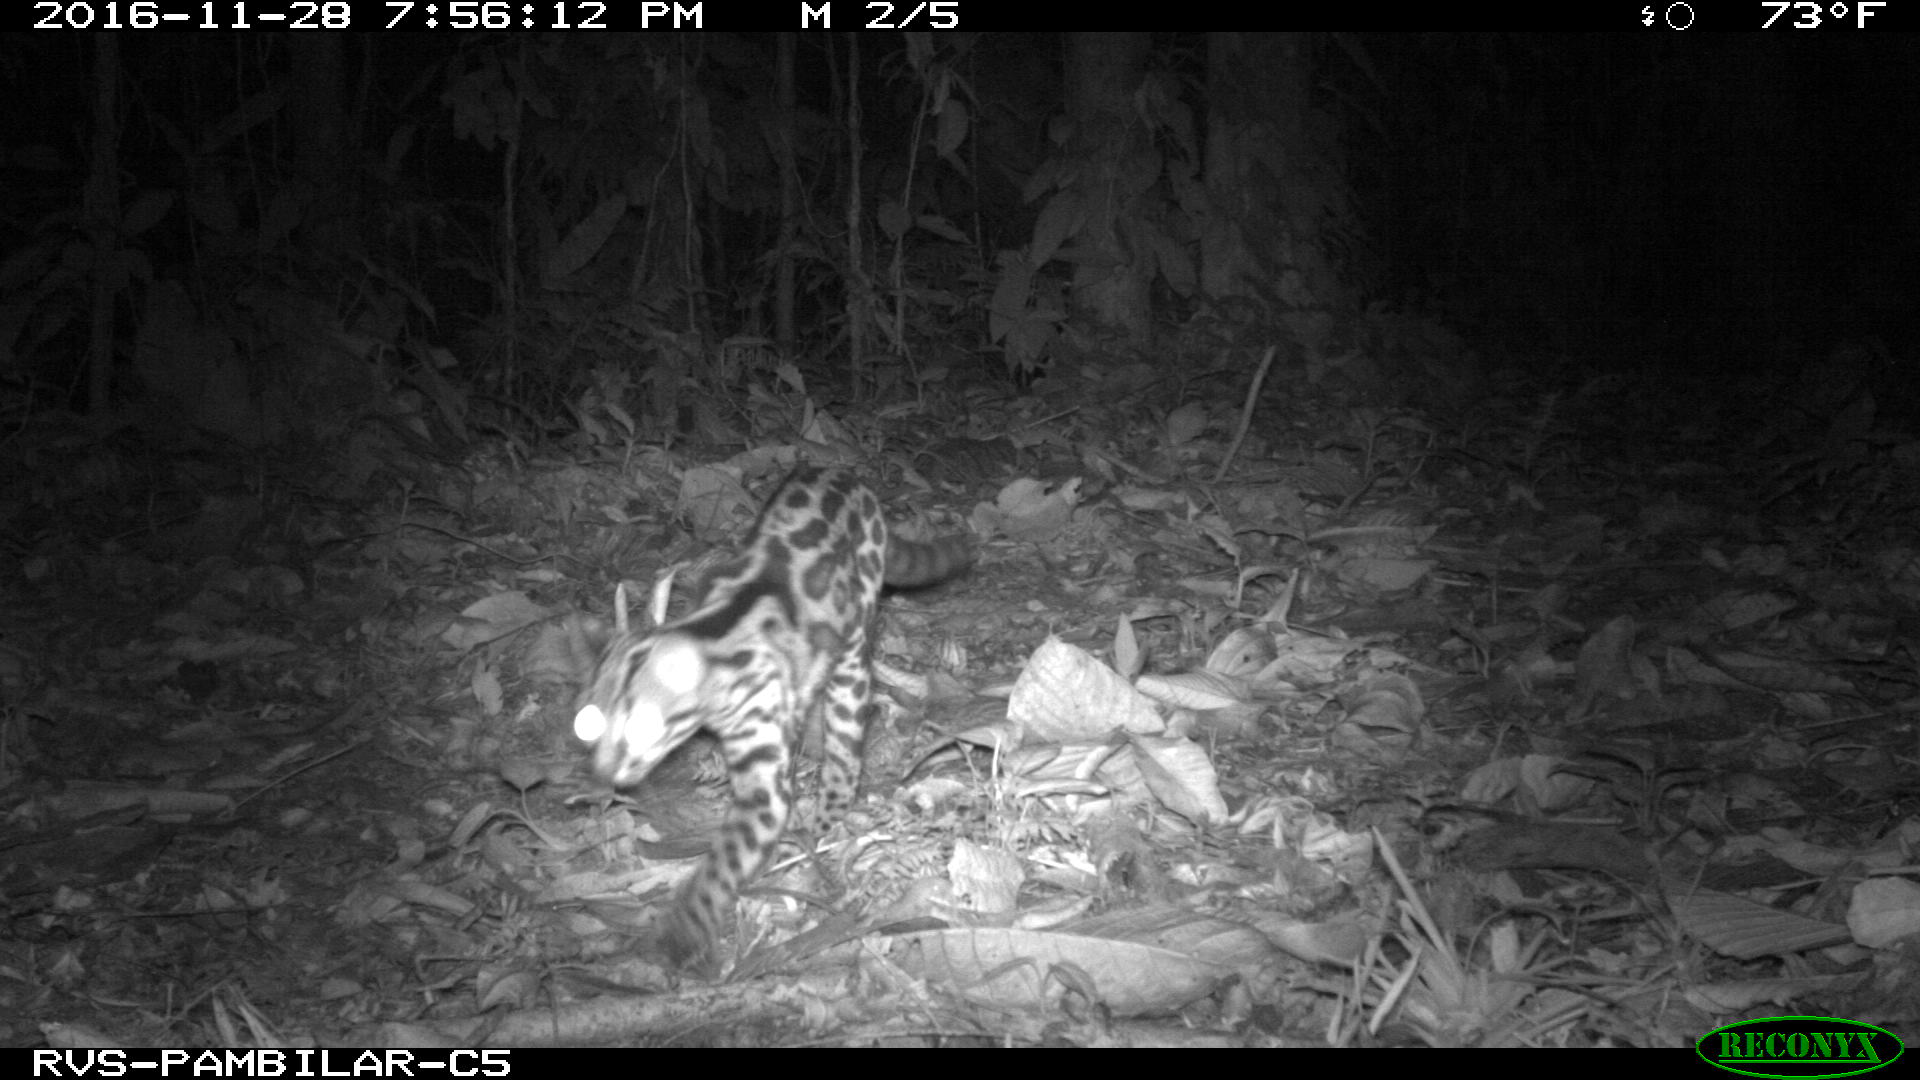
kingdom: Animalia
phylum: Chordata
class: Mammalia
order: Carnivora
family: Felidae
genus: Leopardus
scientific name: Leopardus wiedii
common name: Margay
